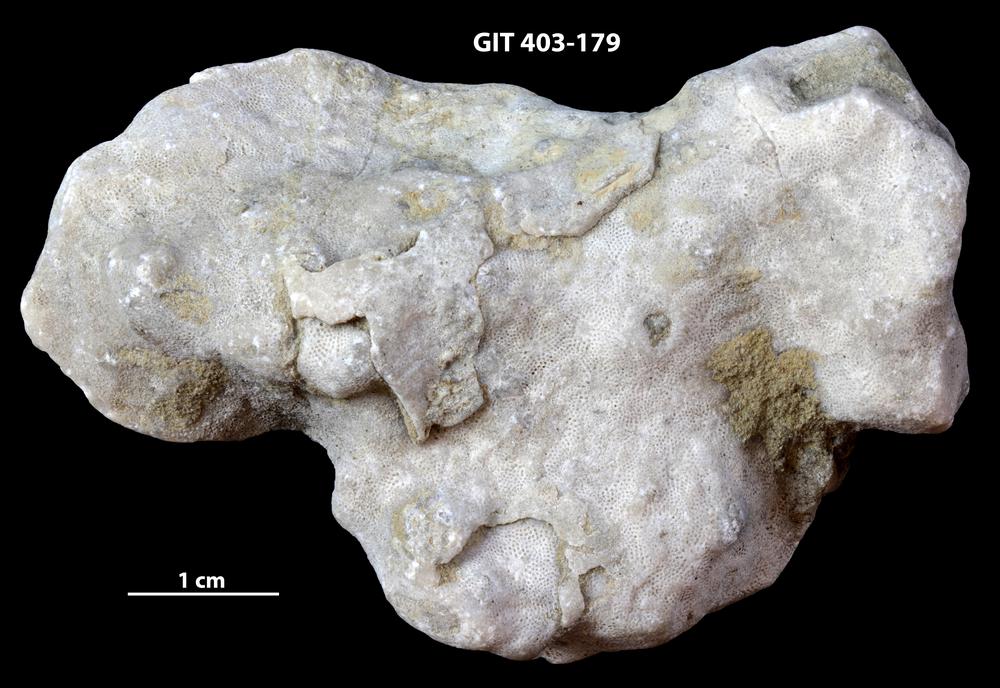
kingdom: Animalia
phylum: Bryozoa
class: Stenolaemata
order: Cystoporida
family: Fistuliporidae
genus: Fistulipora
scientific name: Fistulipora przhidolensis
